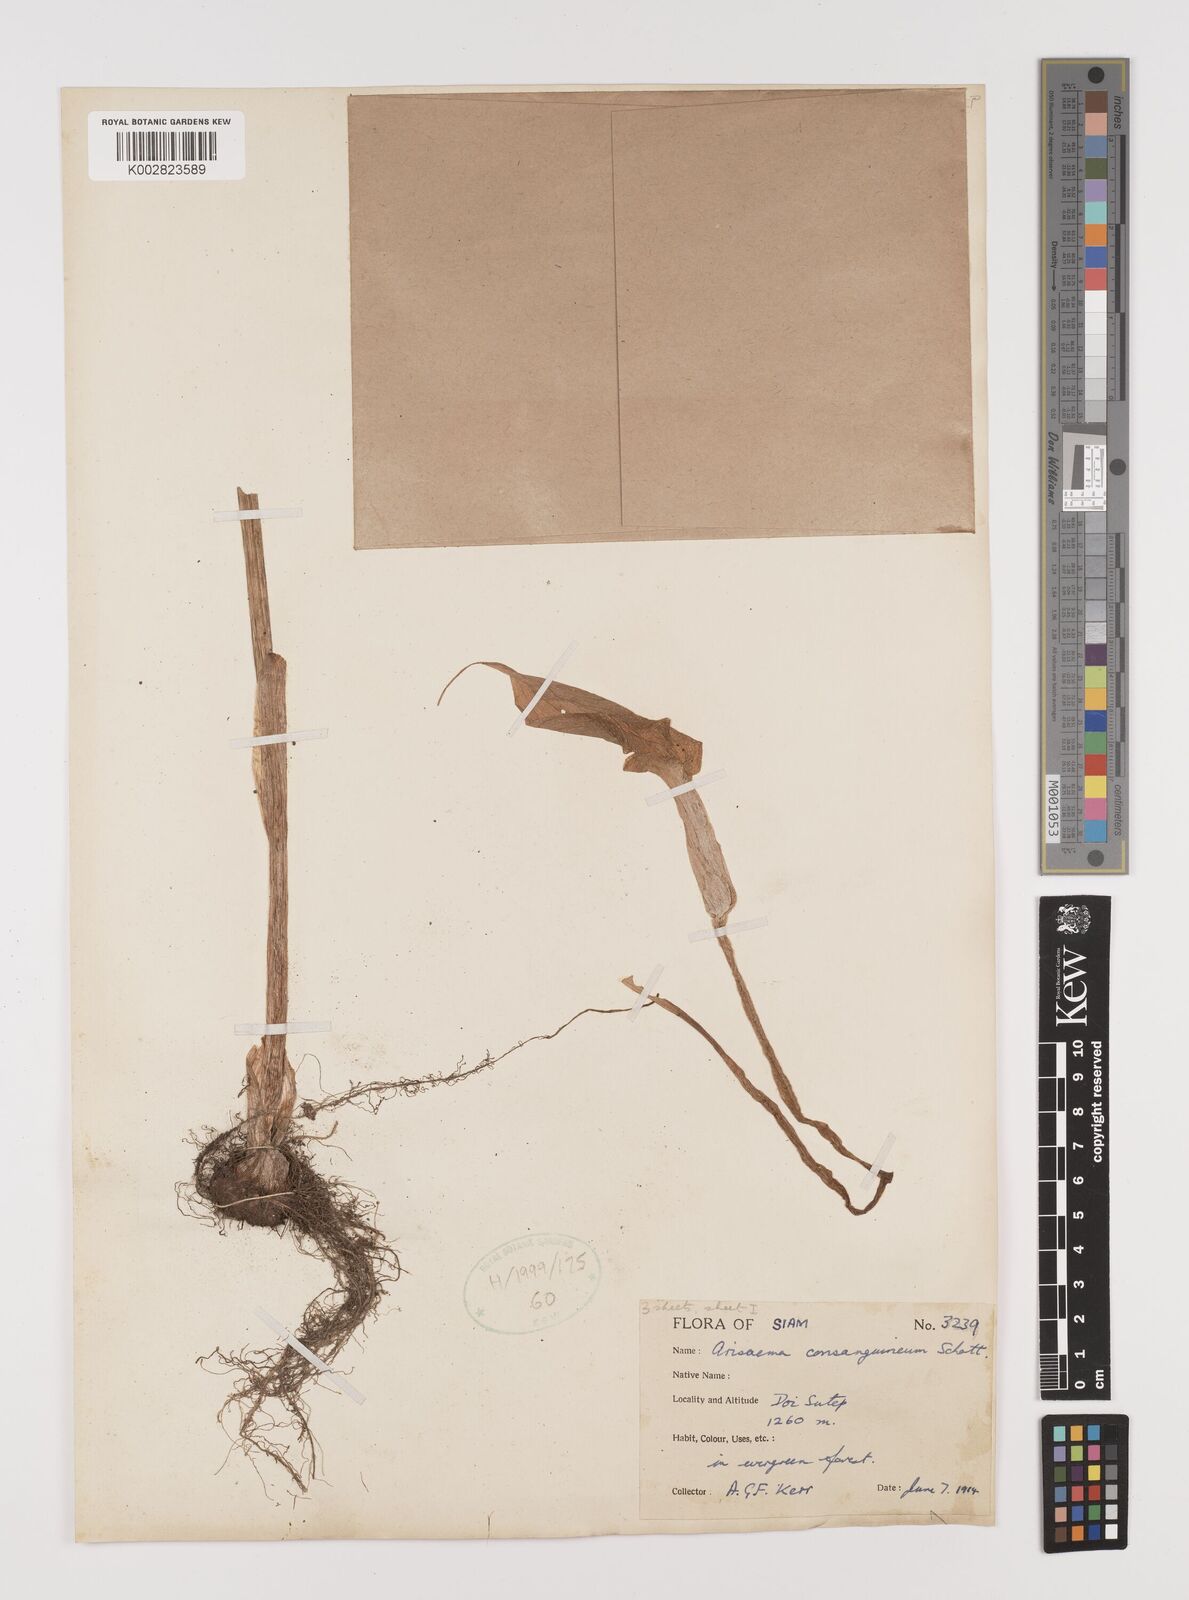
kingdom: Plantae
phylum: Tracheophyta
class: Liliopsida
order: Alismatales
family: Araceae
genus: Arisaema
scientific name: Arisaema consanguineum
